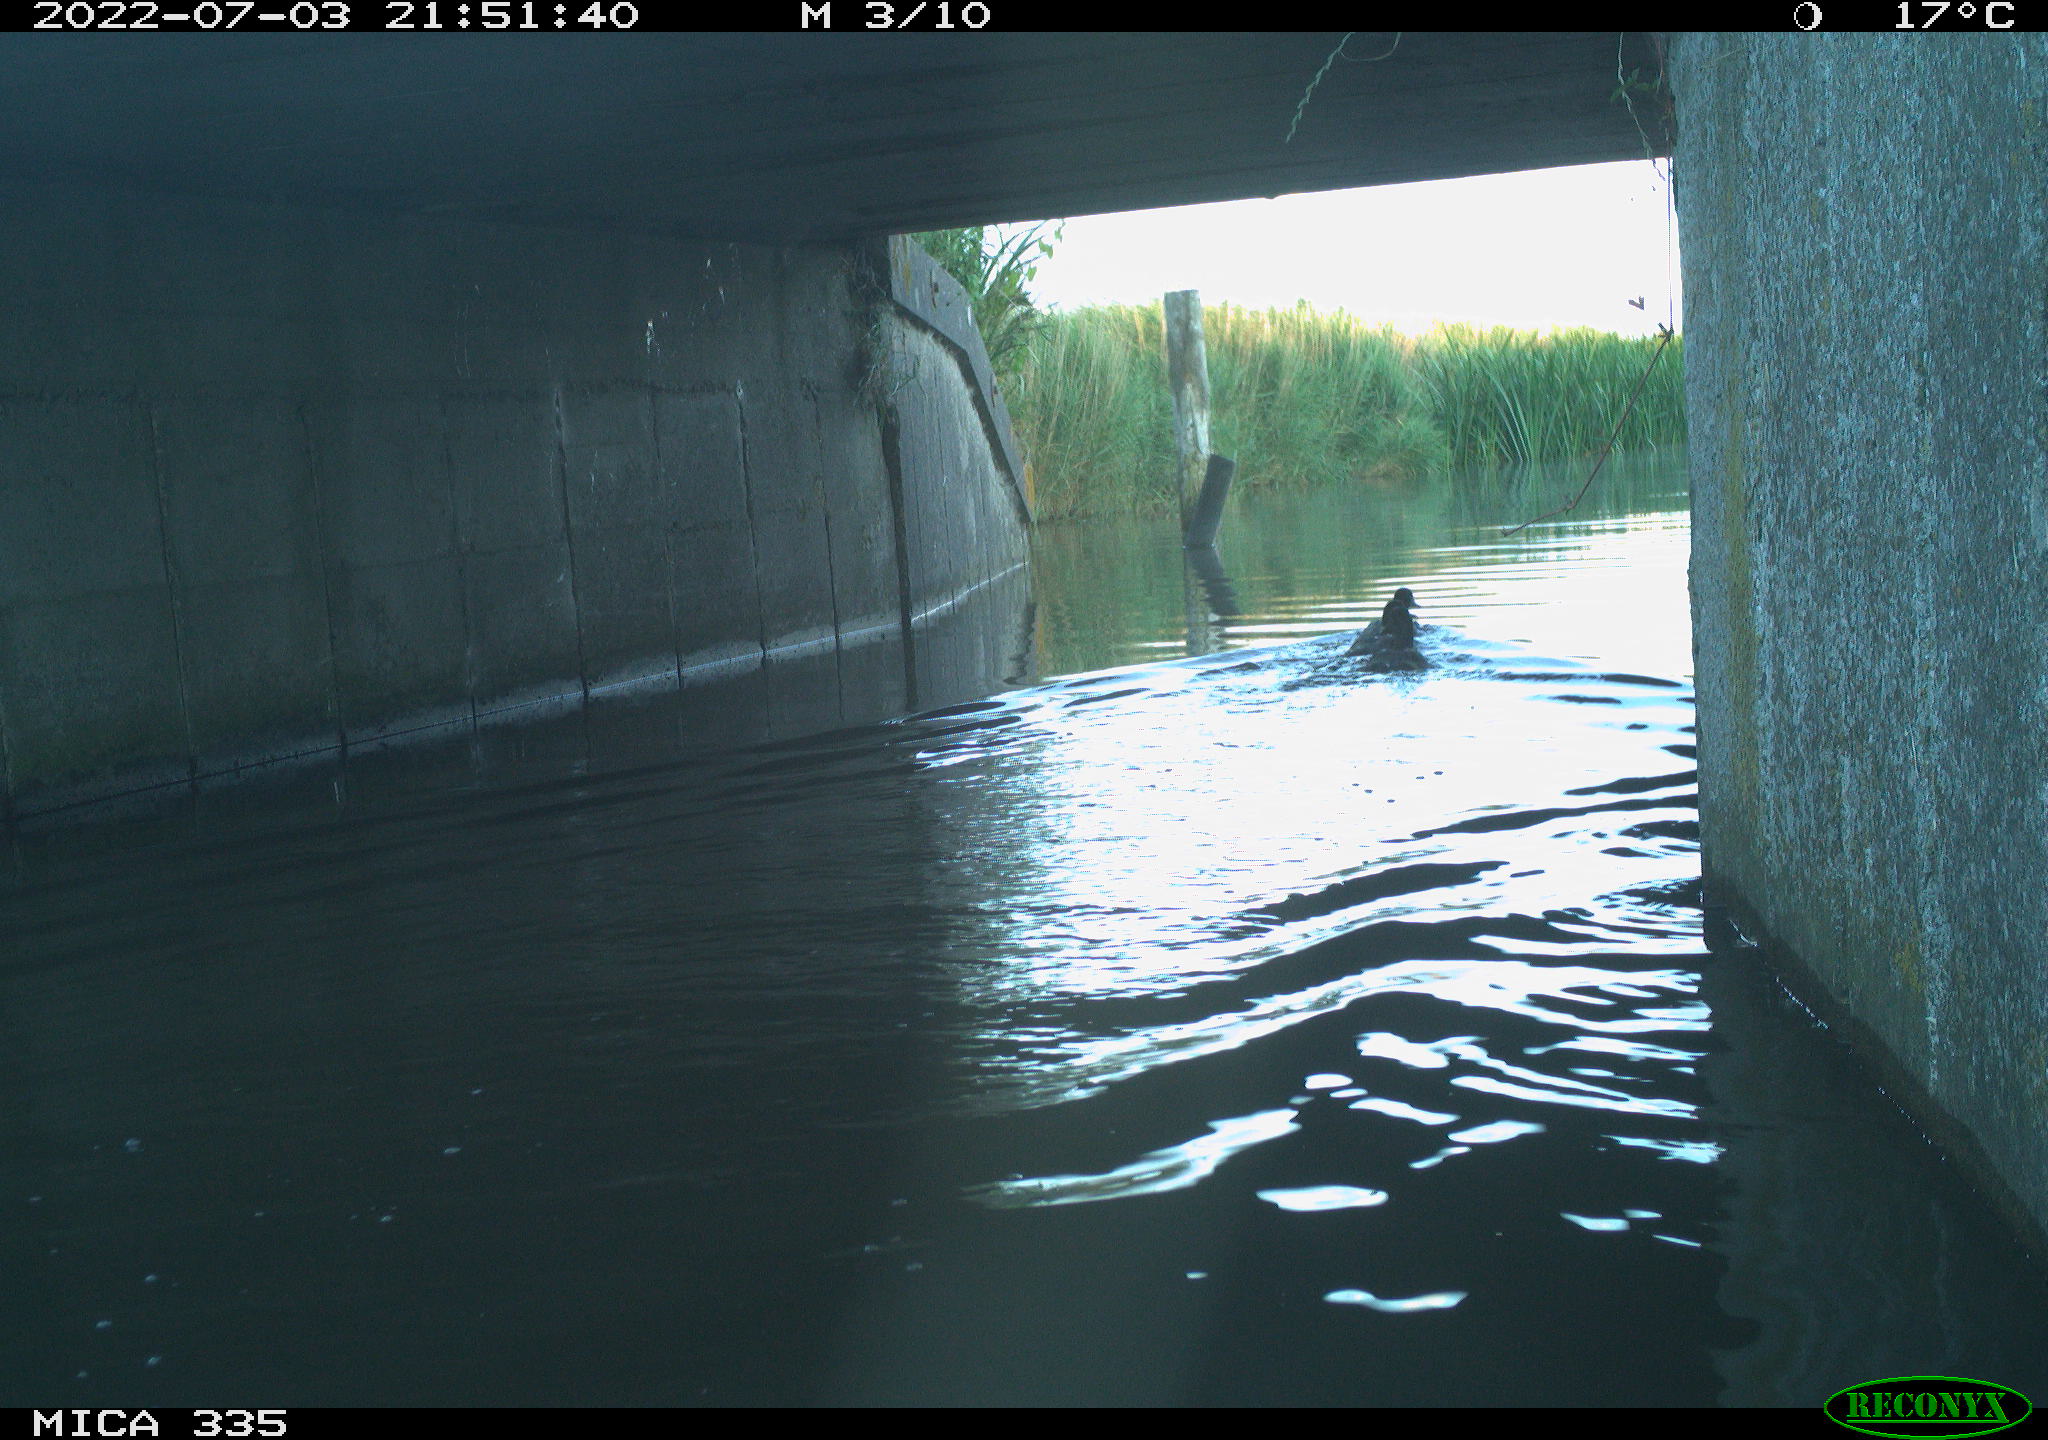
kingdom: Animalia
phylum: Chordata
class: Aves
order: Anseriformes
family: Anatidae
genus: Anas
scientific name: Anas platyrhynchos
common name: Mallard
